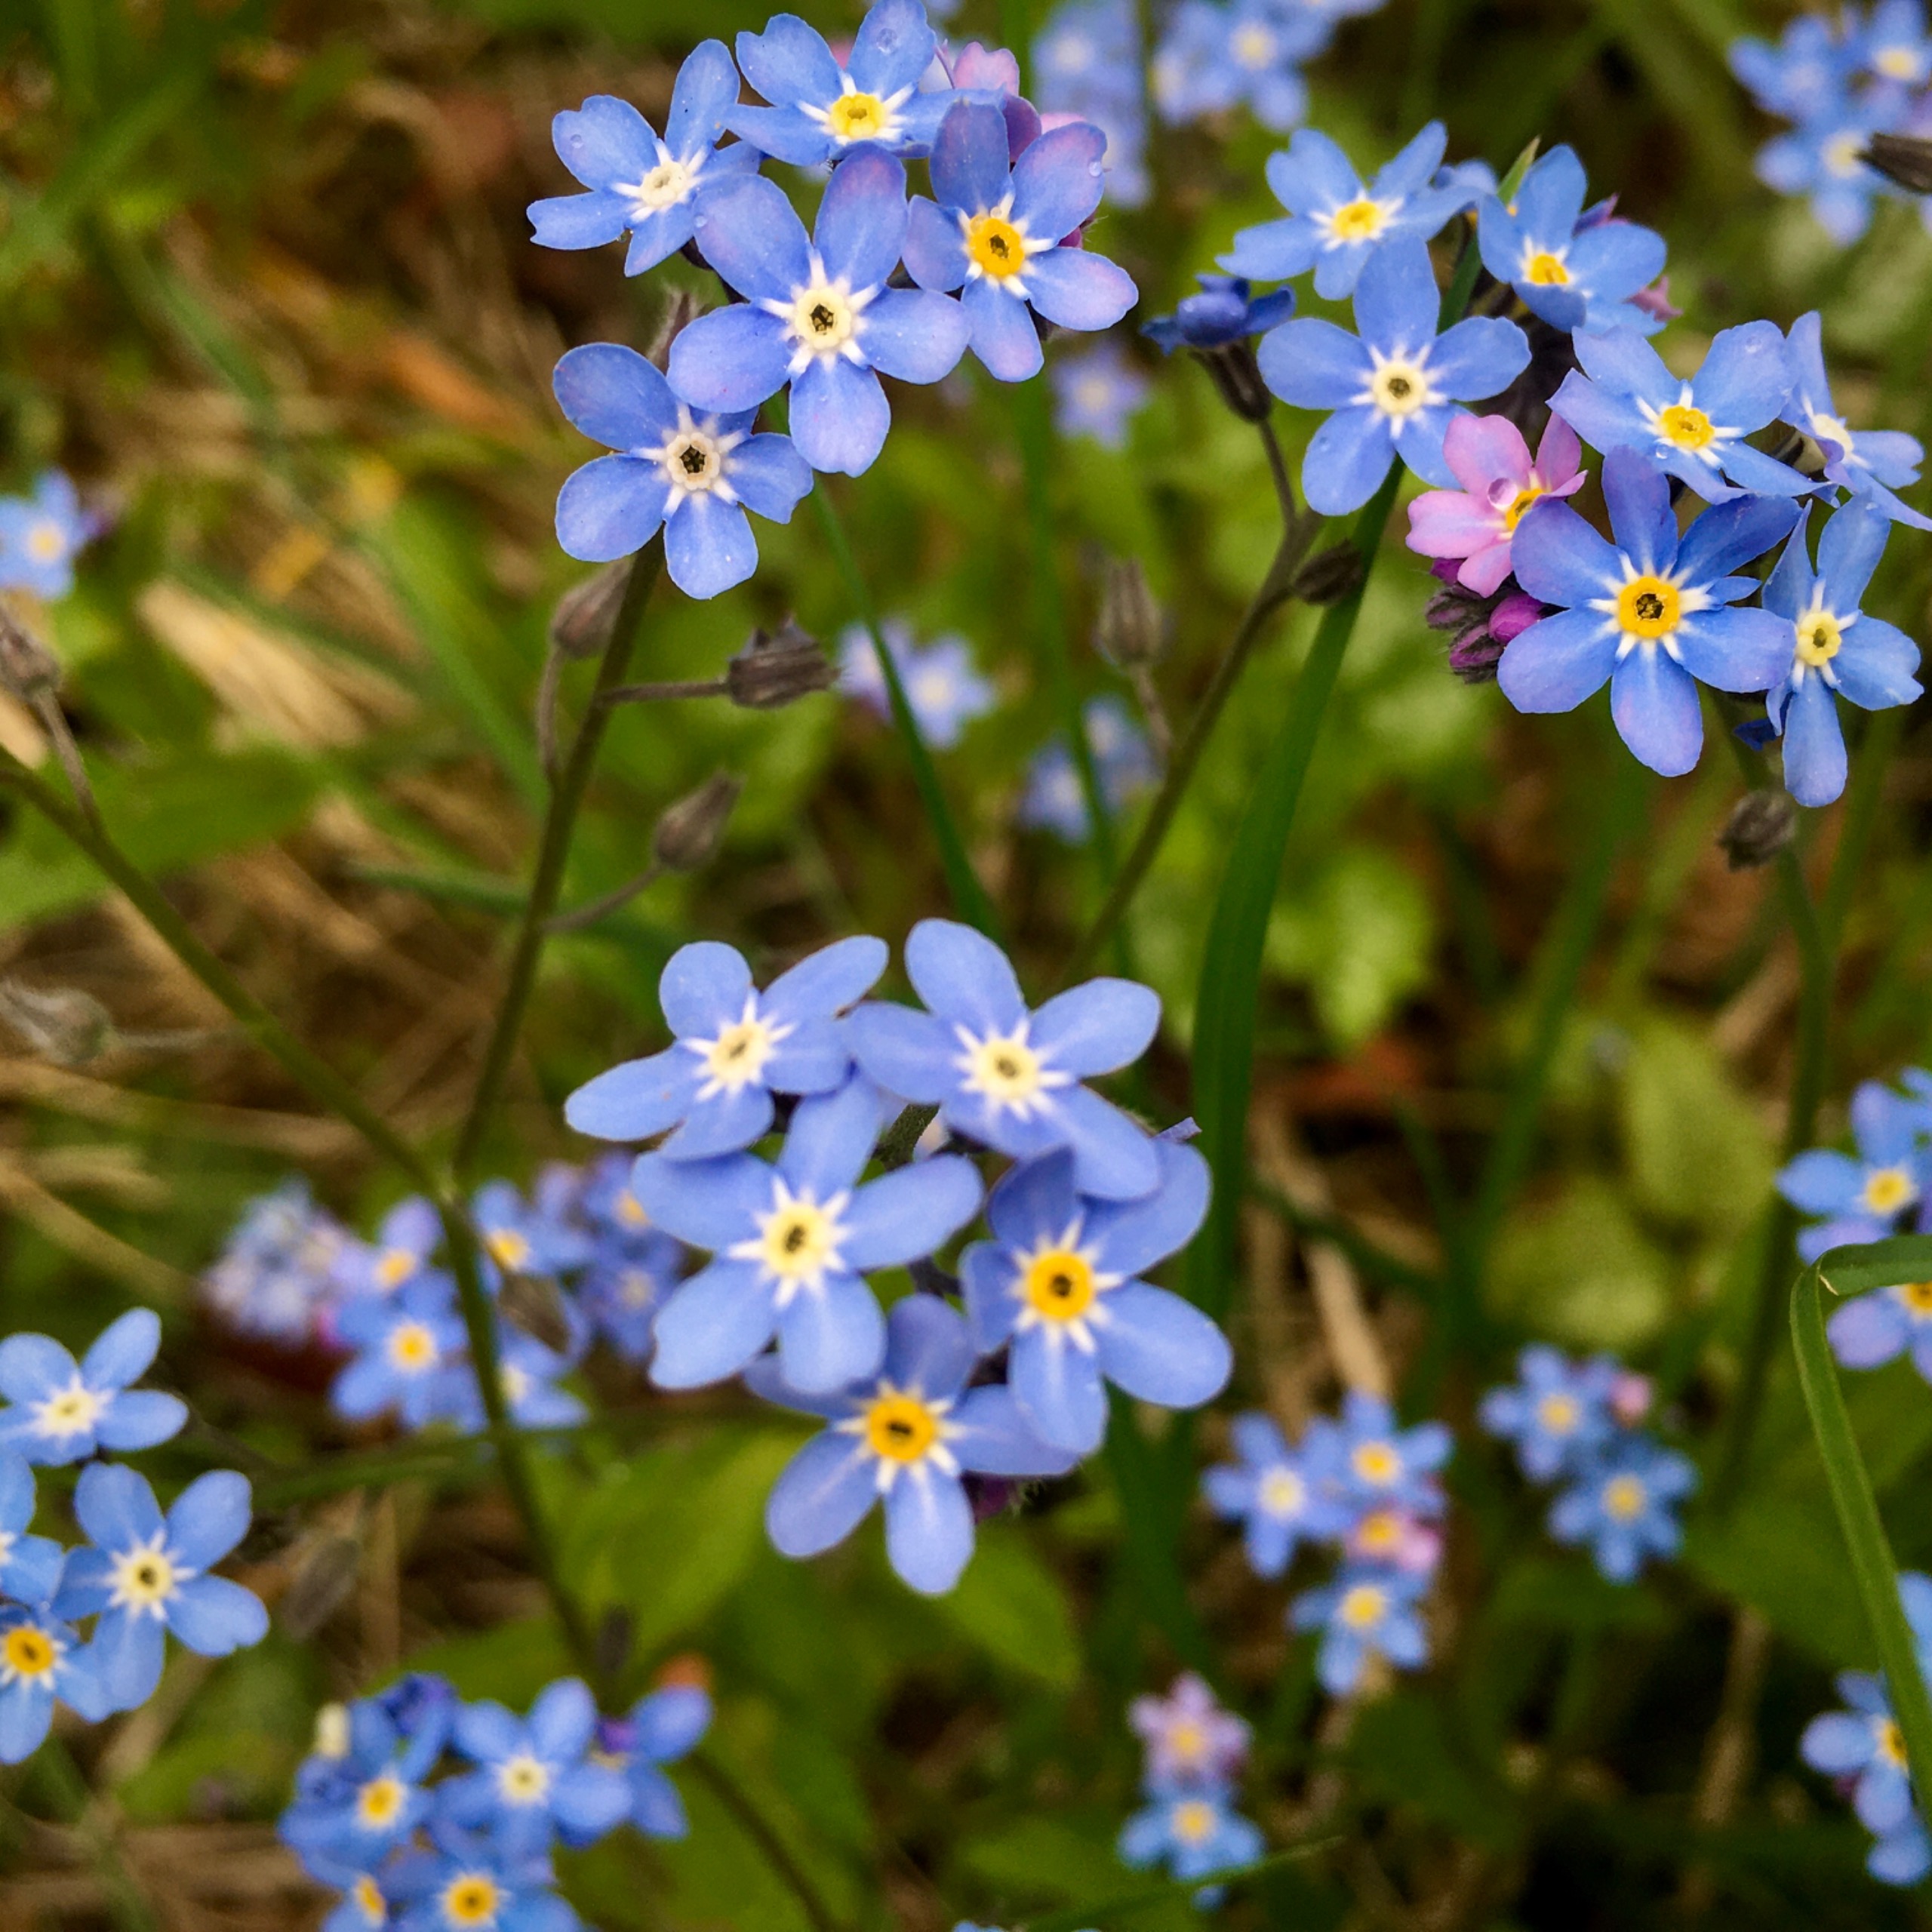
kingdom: Plantae
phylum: Tracheophyta
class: Magnoliopsida
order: Boraginales
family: Boraginaceae
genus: Myosotis
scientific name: Myosotis sylvatica
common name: Skov-forglemmigej
